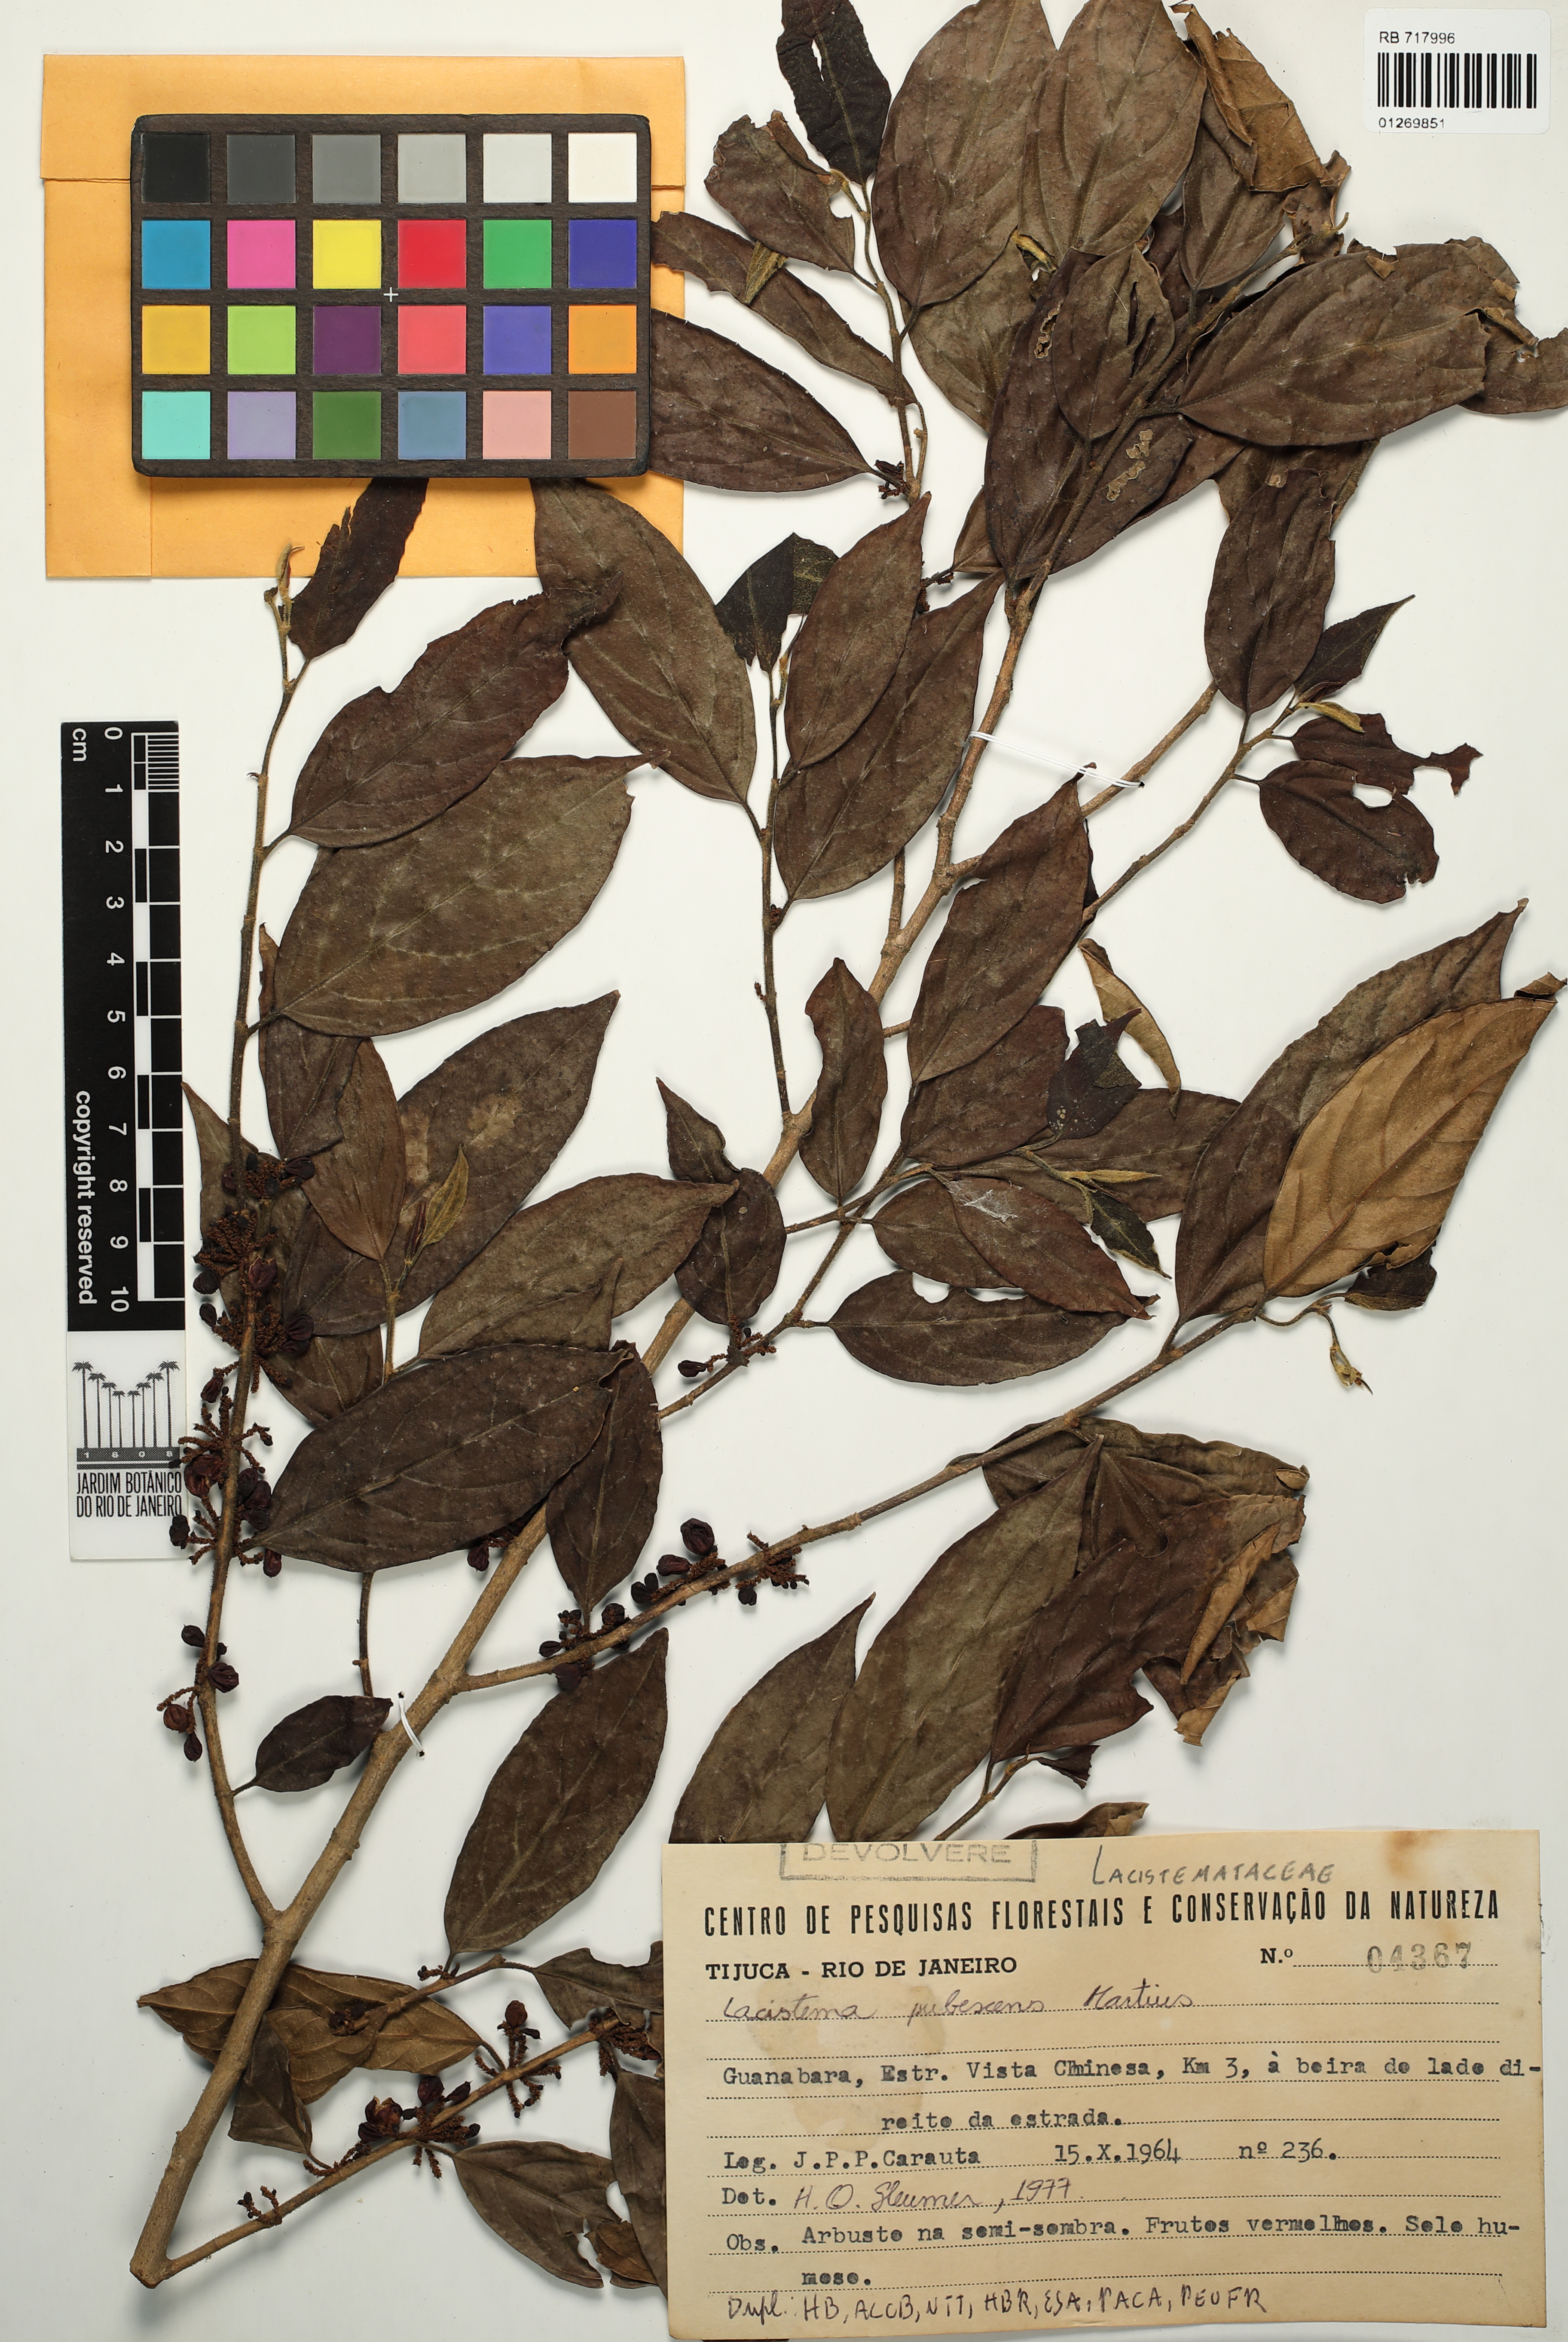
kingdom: Plantae
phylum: Tracheophyta
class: Magnoliopsida
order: Malpighiales
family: Lacistemataceae
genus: Lacistema
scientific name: Lacistema pubescens
